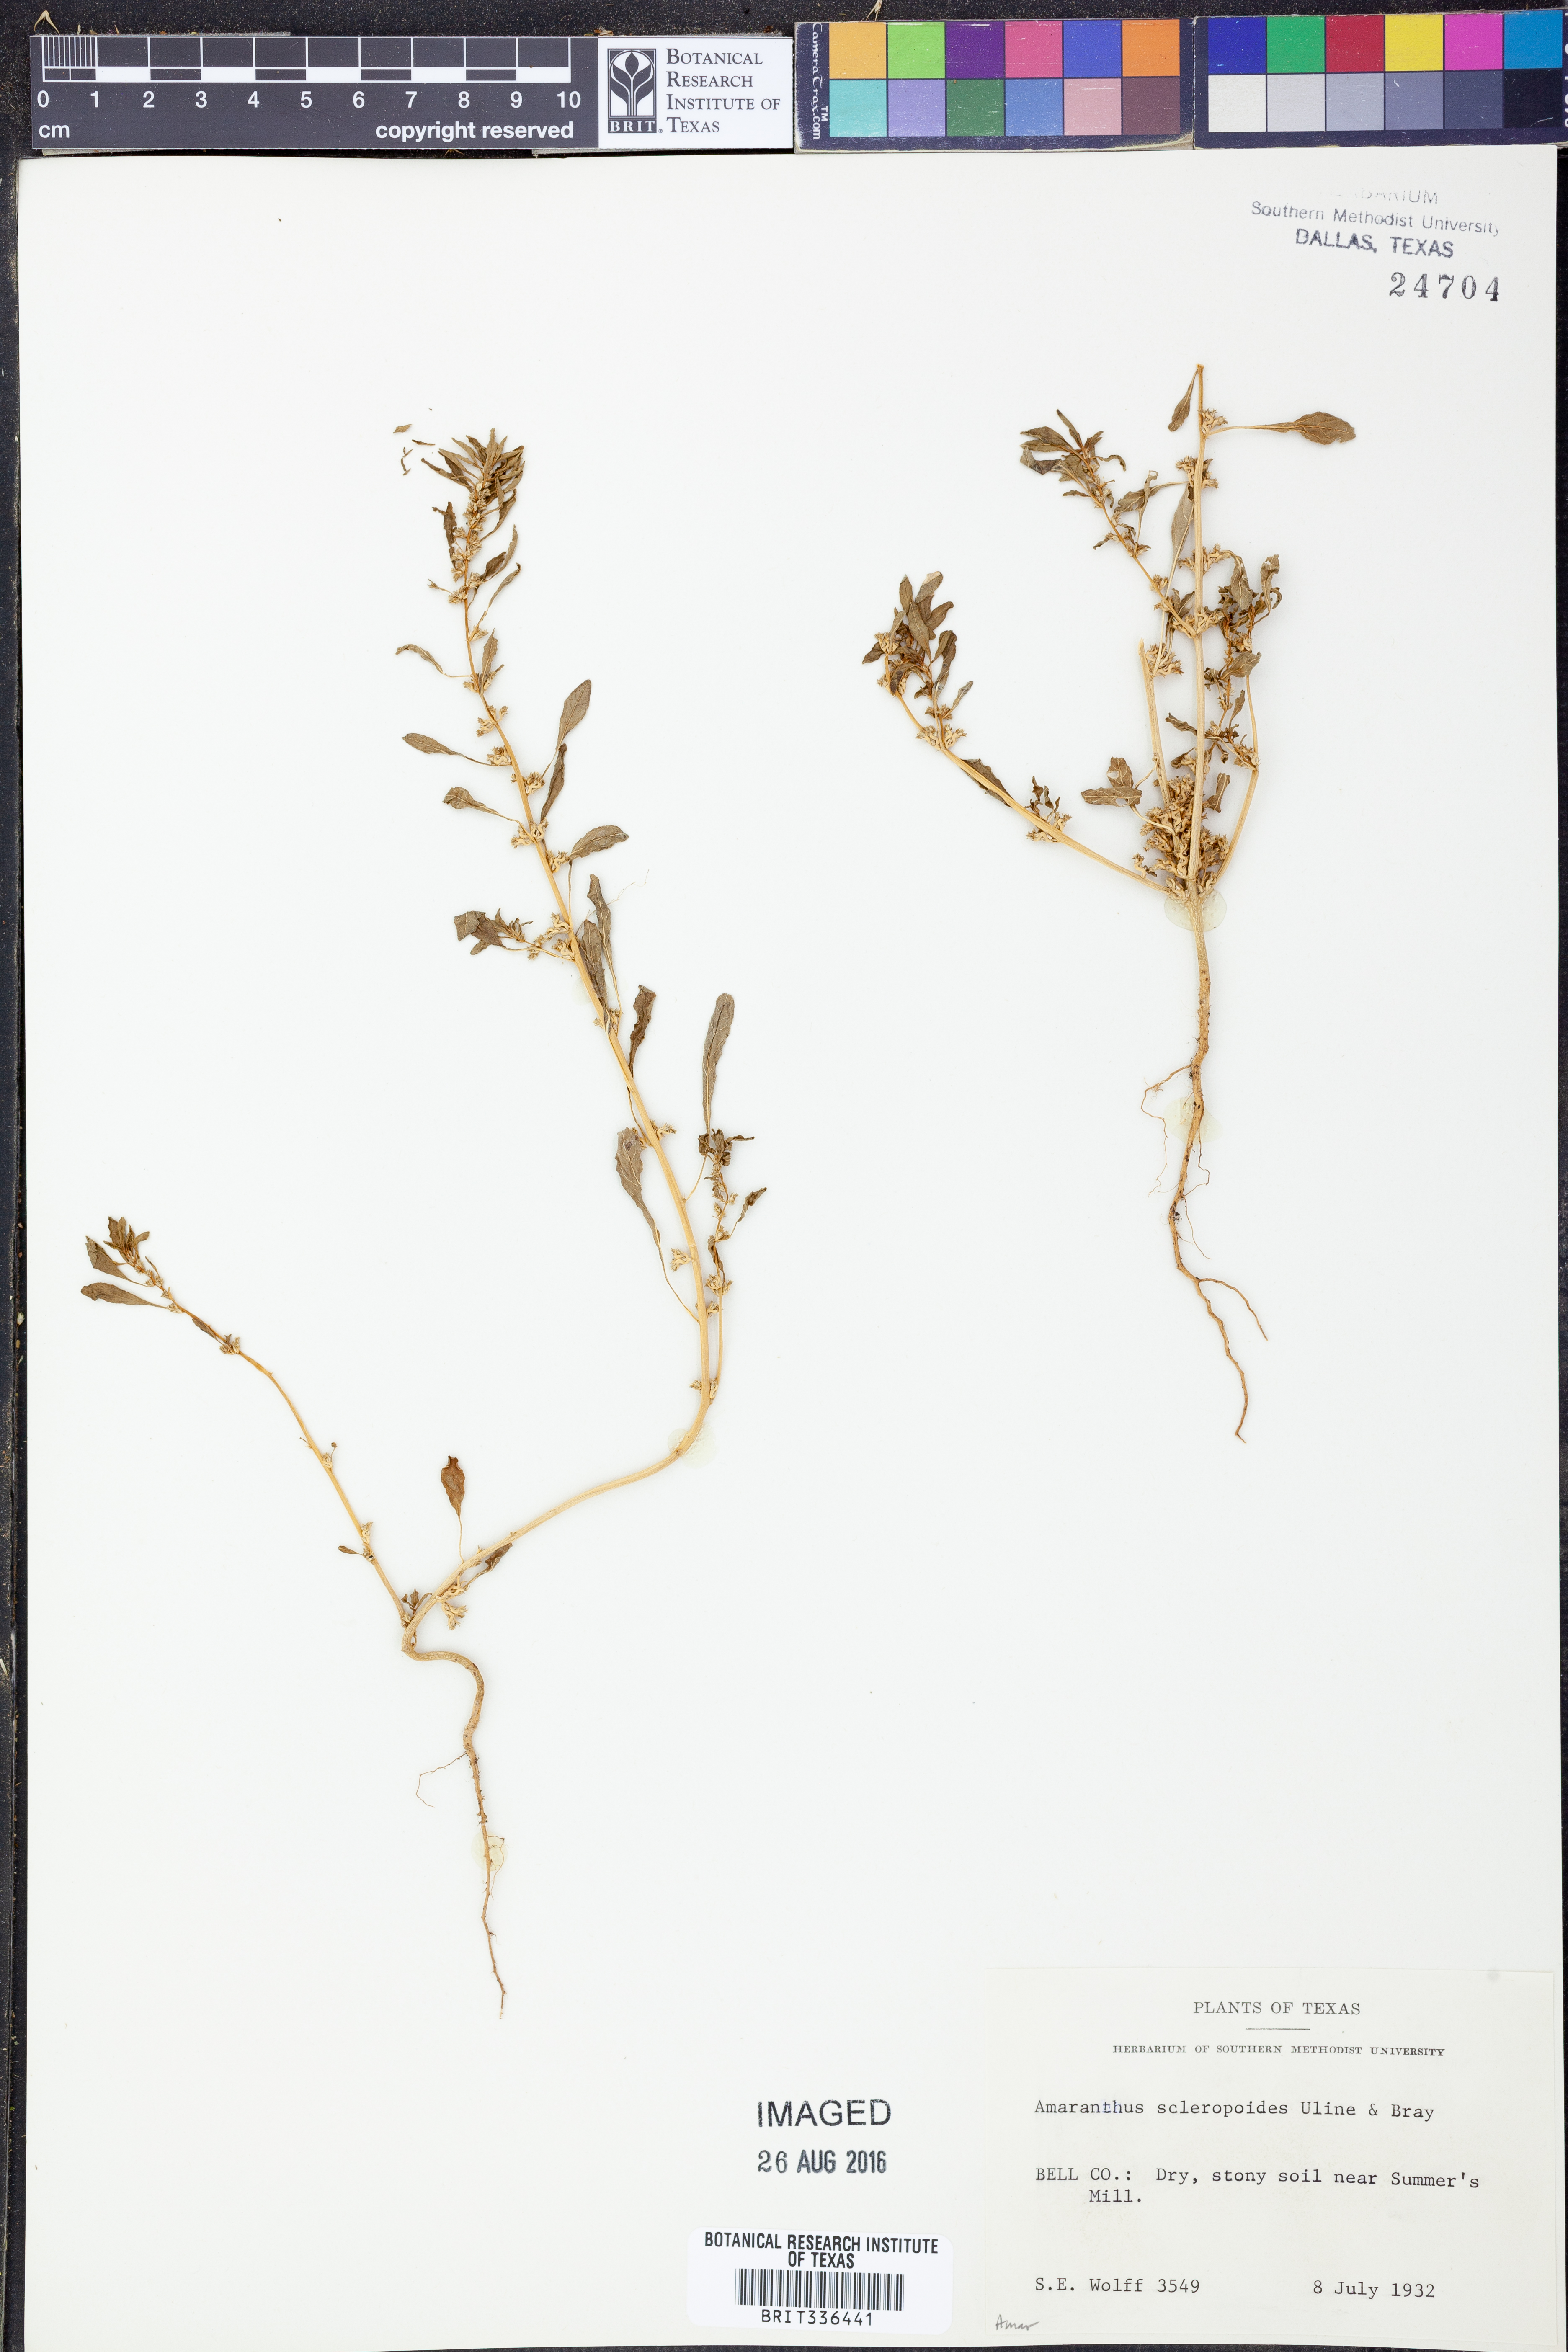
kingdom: Plantae
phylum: Tracheophyta
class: Magnoliopsida
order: Caryophyllales
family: Amaranthaceae
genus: Amaranthus
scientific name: Amaranthus scleropoides
